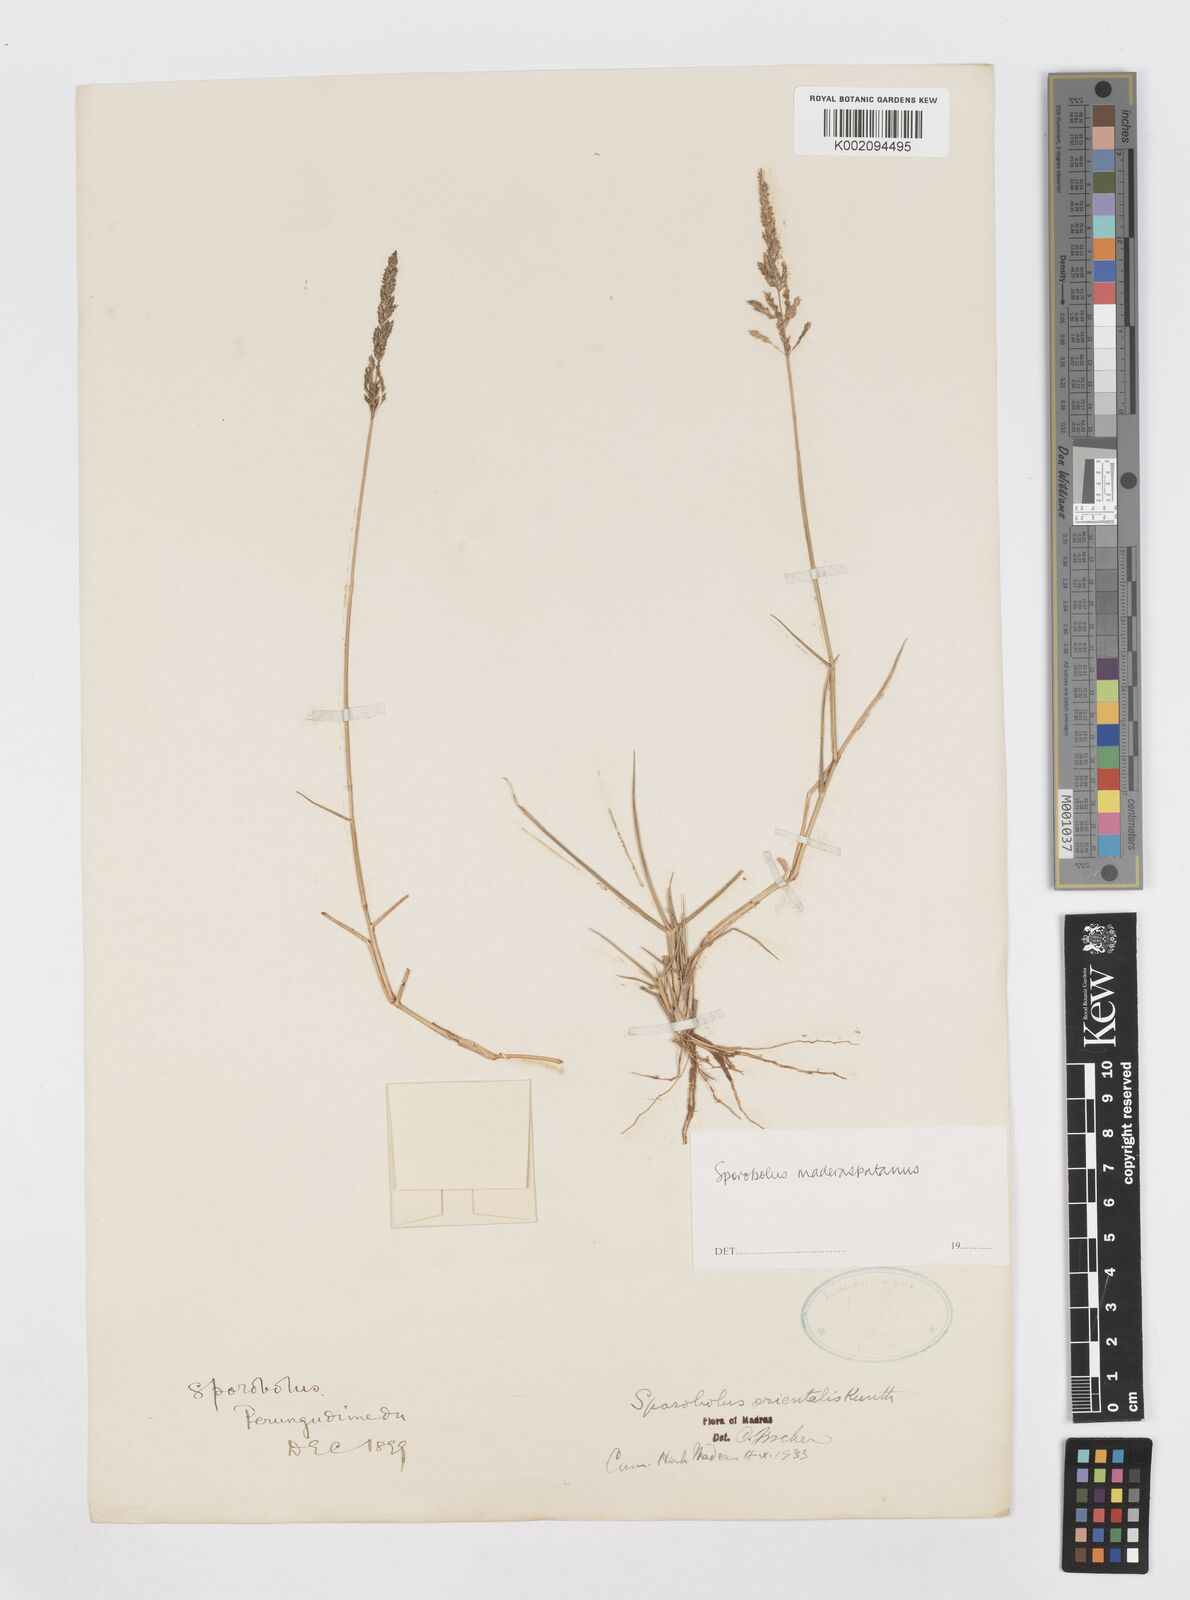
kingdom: Plantae
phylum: Tracheophyta
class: Liliopsida
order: Poales
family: Poaceae
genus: Sporobolus
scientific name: Sporobolus maderaspatanus
